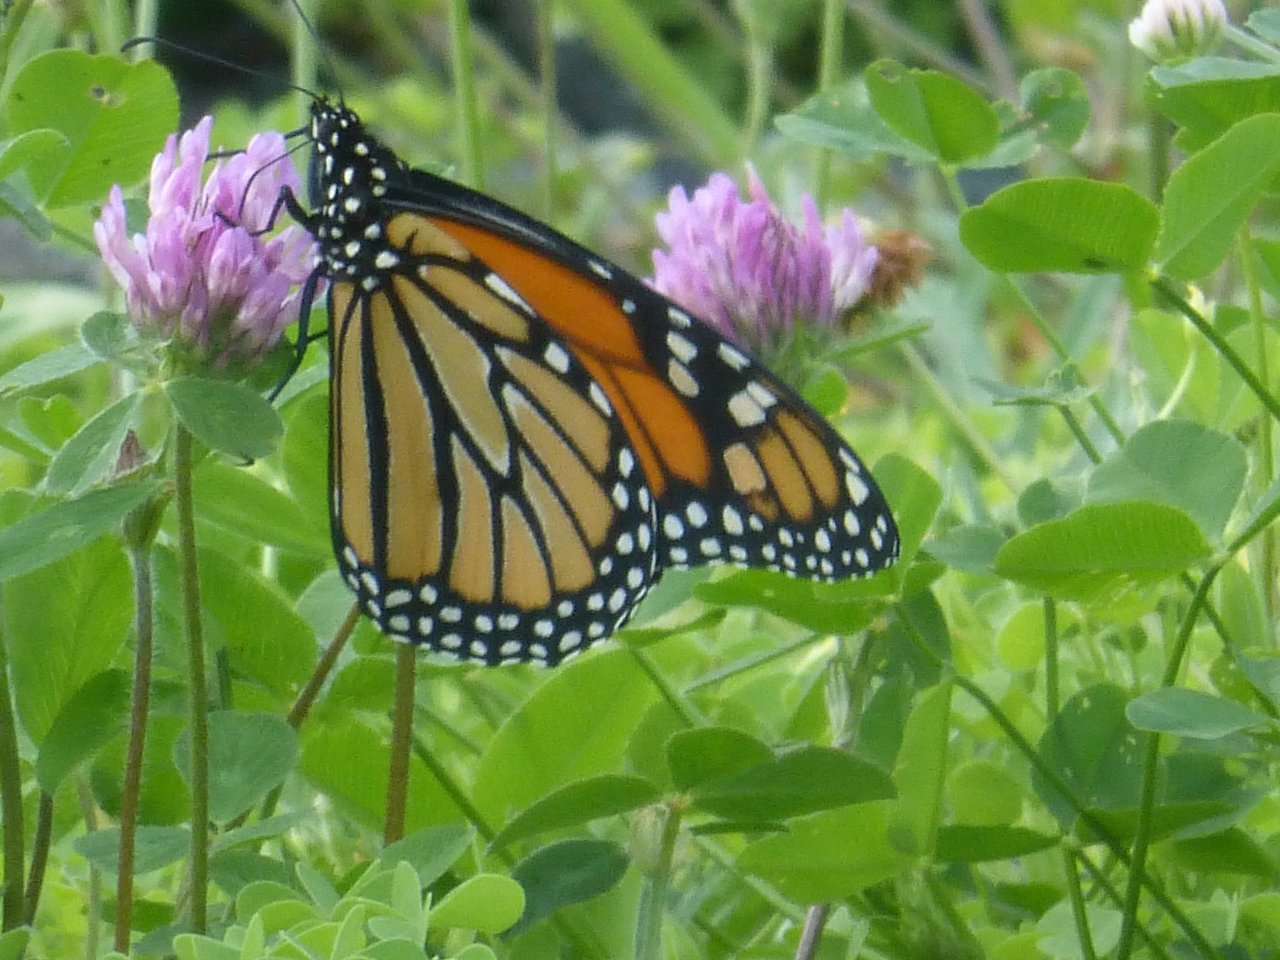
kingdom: Animalia
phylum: Arthropoda
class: Insecta
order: Lepidoptera
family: Nymphalidae
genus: Danaus
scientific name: Danaus plexippus
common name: Monarch
